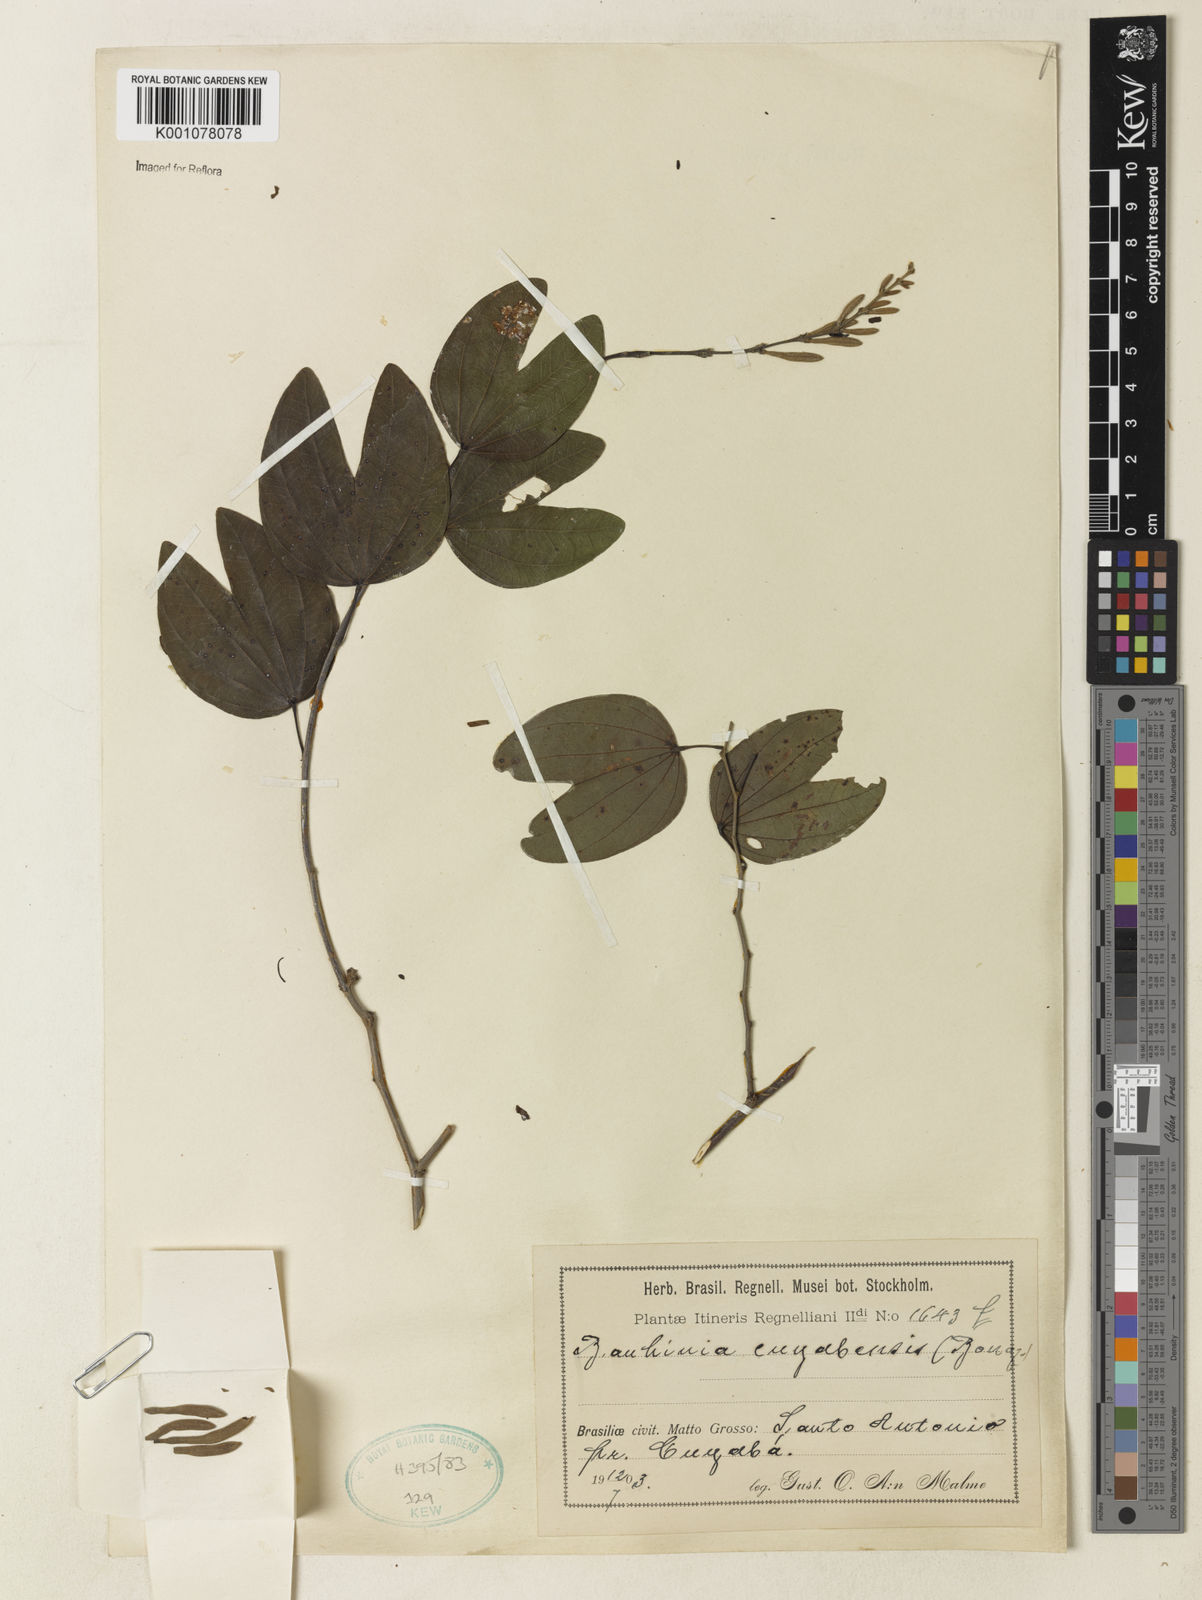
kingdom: Plantae
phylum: Tracheophyta
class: Magnoliopsida
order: Fabales
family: Fabaceae
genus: Bauhinia
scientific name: Bauhinia ungulata
